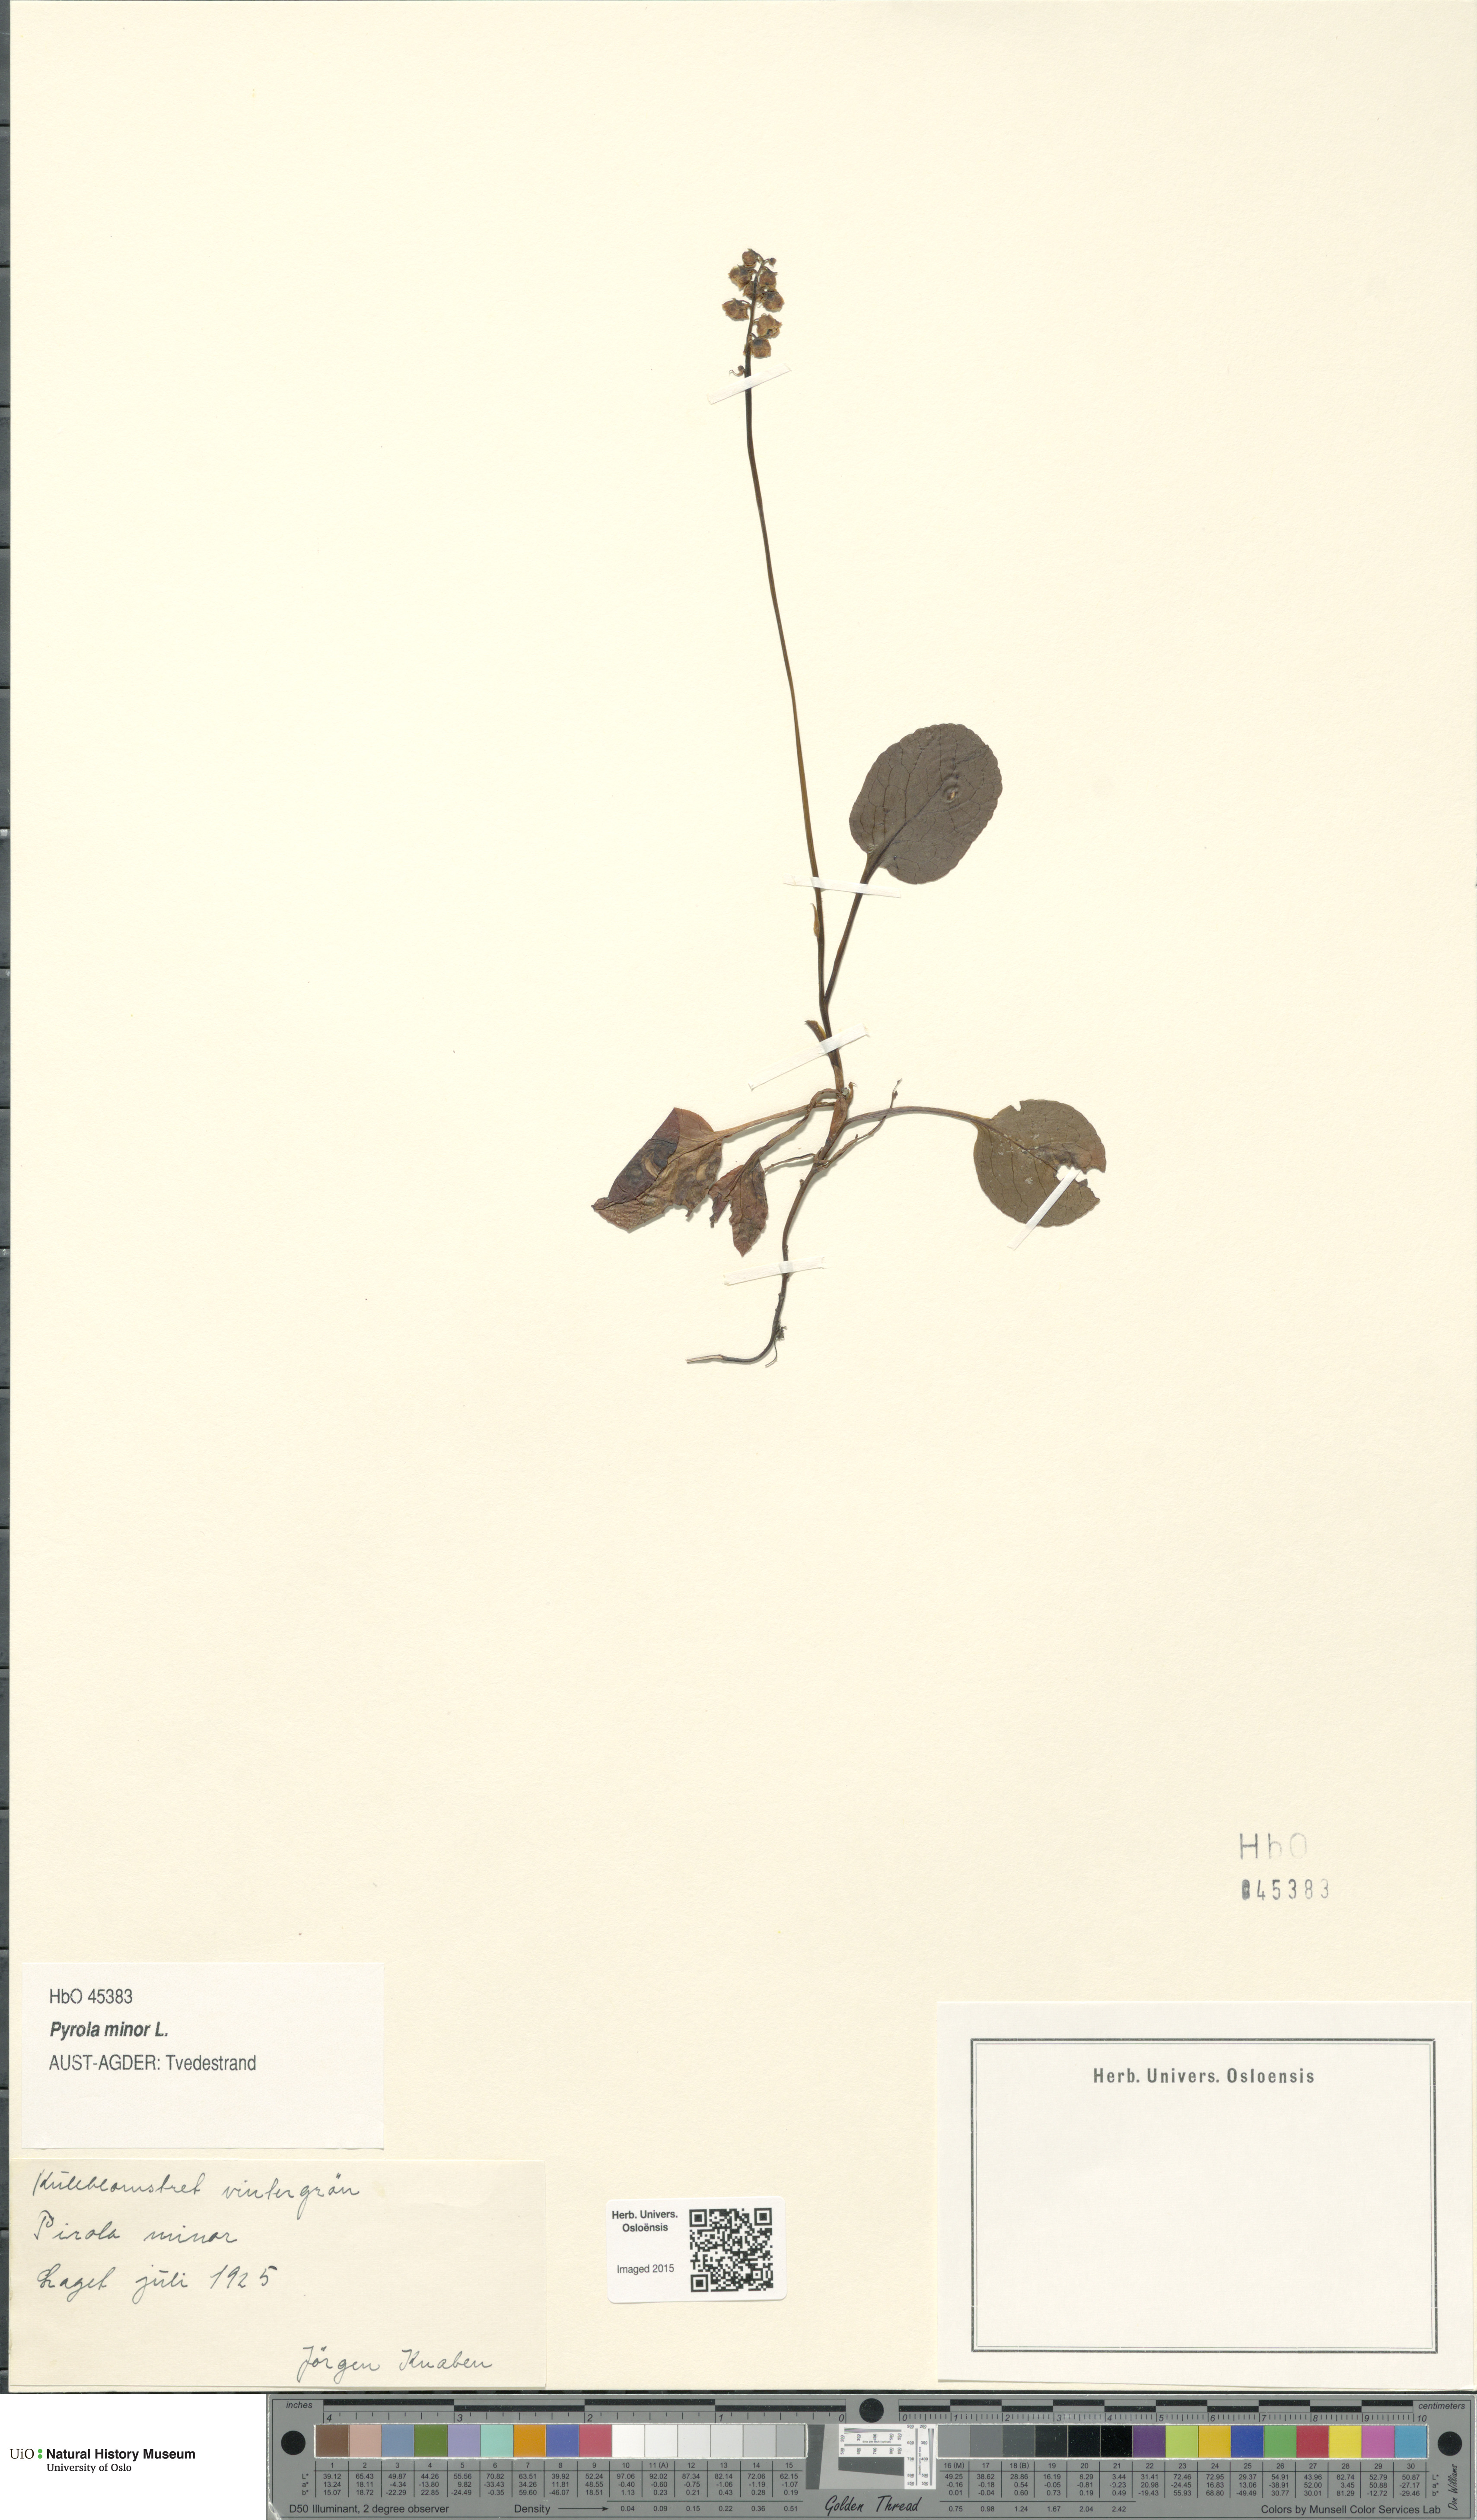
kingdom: Plantae
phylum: Tracheophyta
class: Magnoliopsida
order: Ericales
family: Ericaceae
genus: Pyrola
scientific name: Pyrola minor
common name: Common wintergreen
